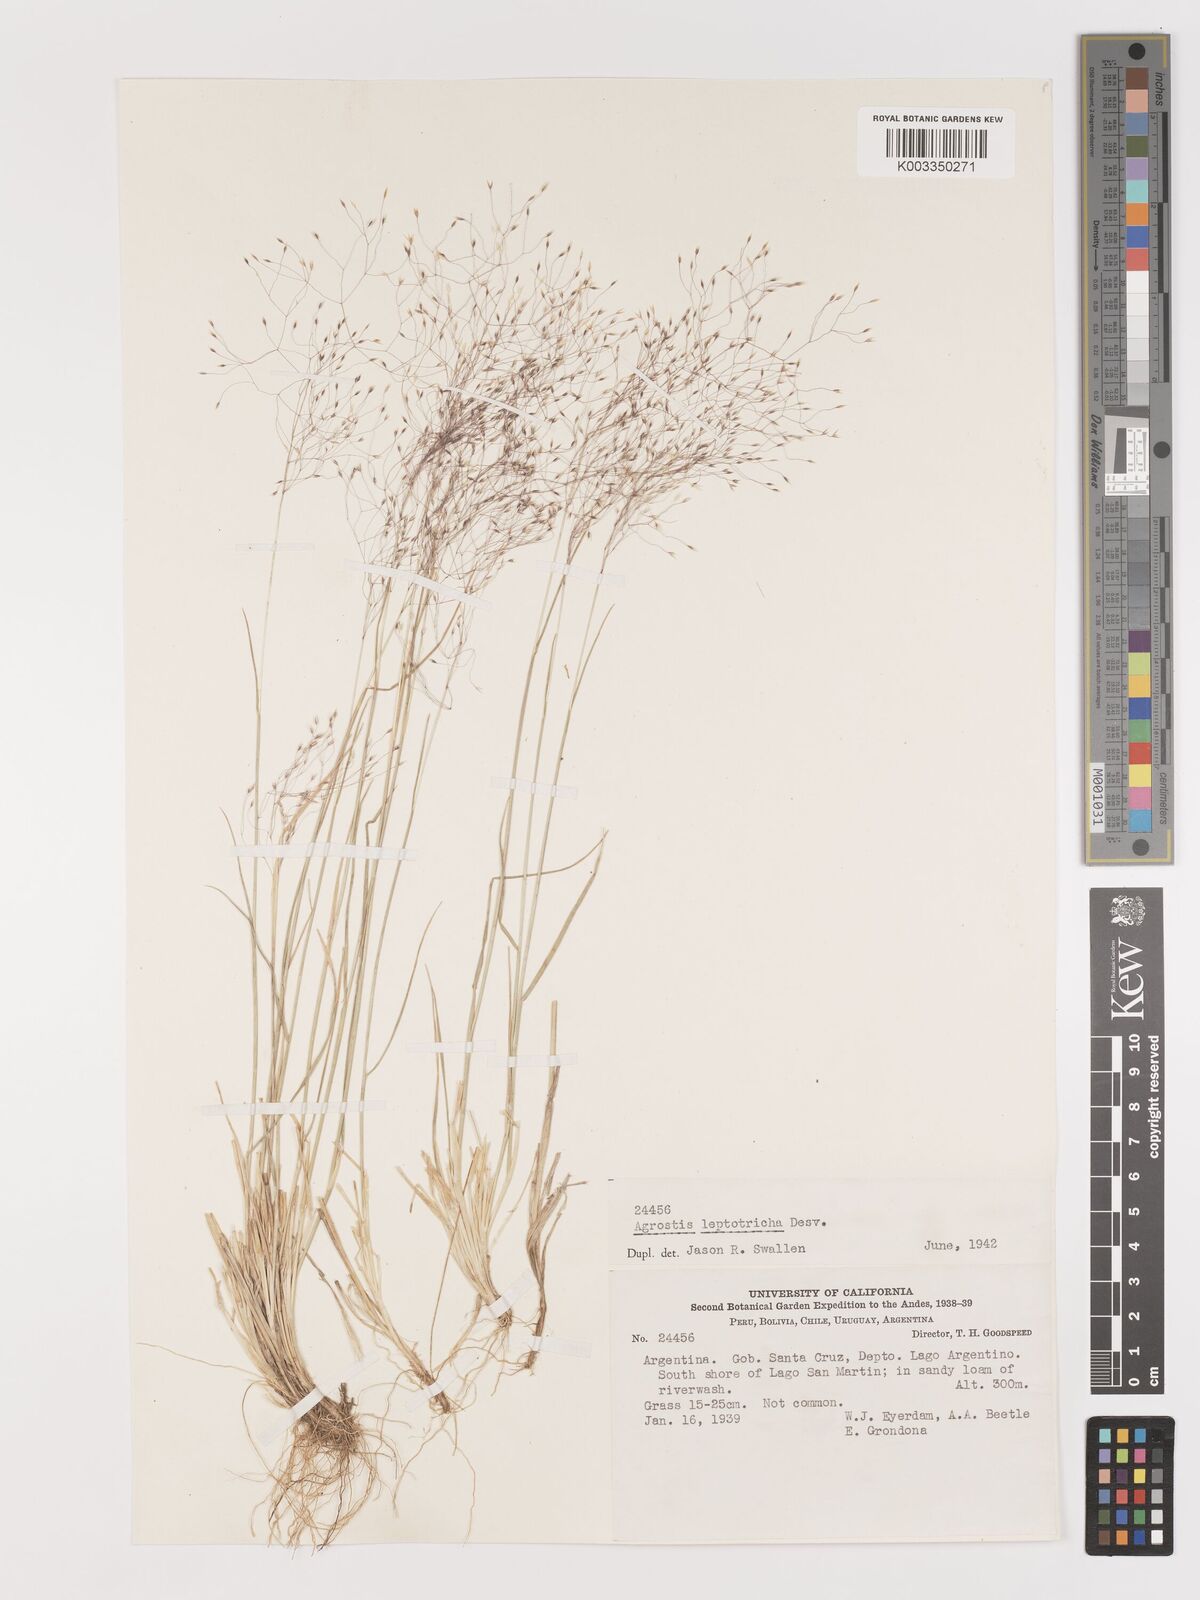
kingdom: Plantae
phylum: Tracheophyta
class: Liliopsida
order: Poales
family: Poaceae
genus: Agrostis
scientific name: Agrostis leptotricha
